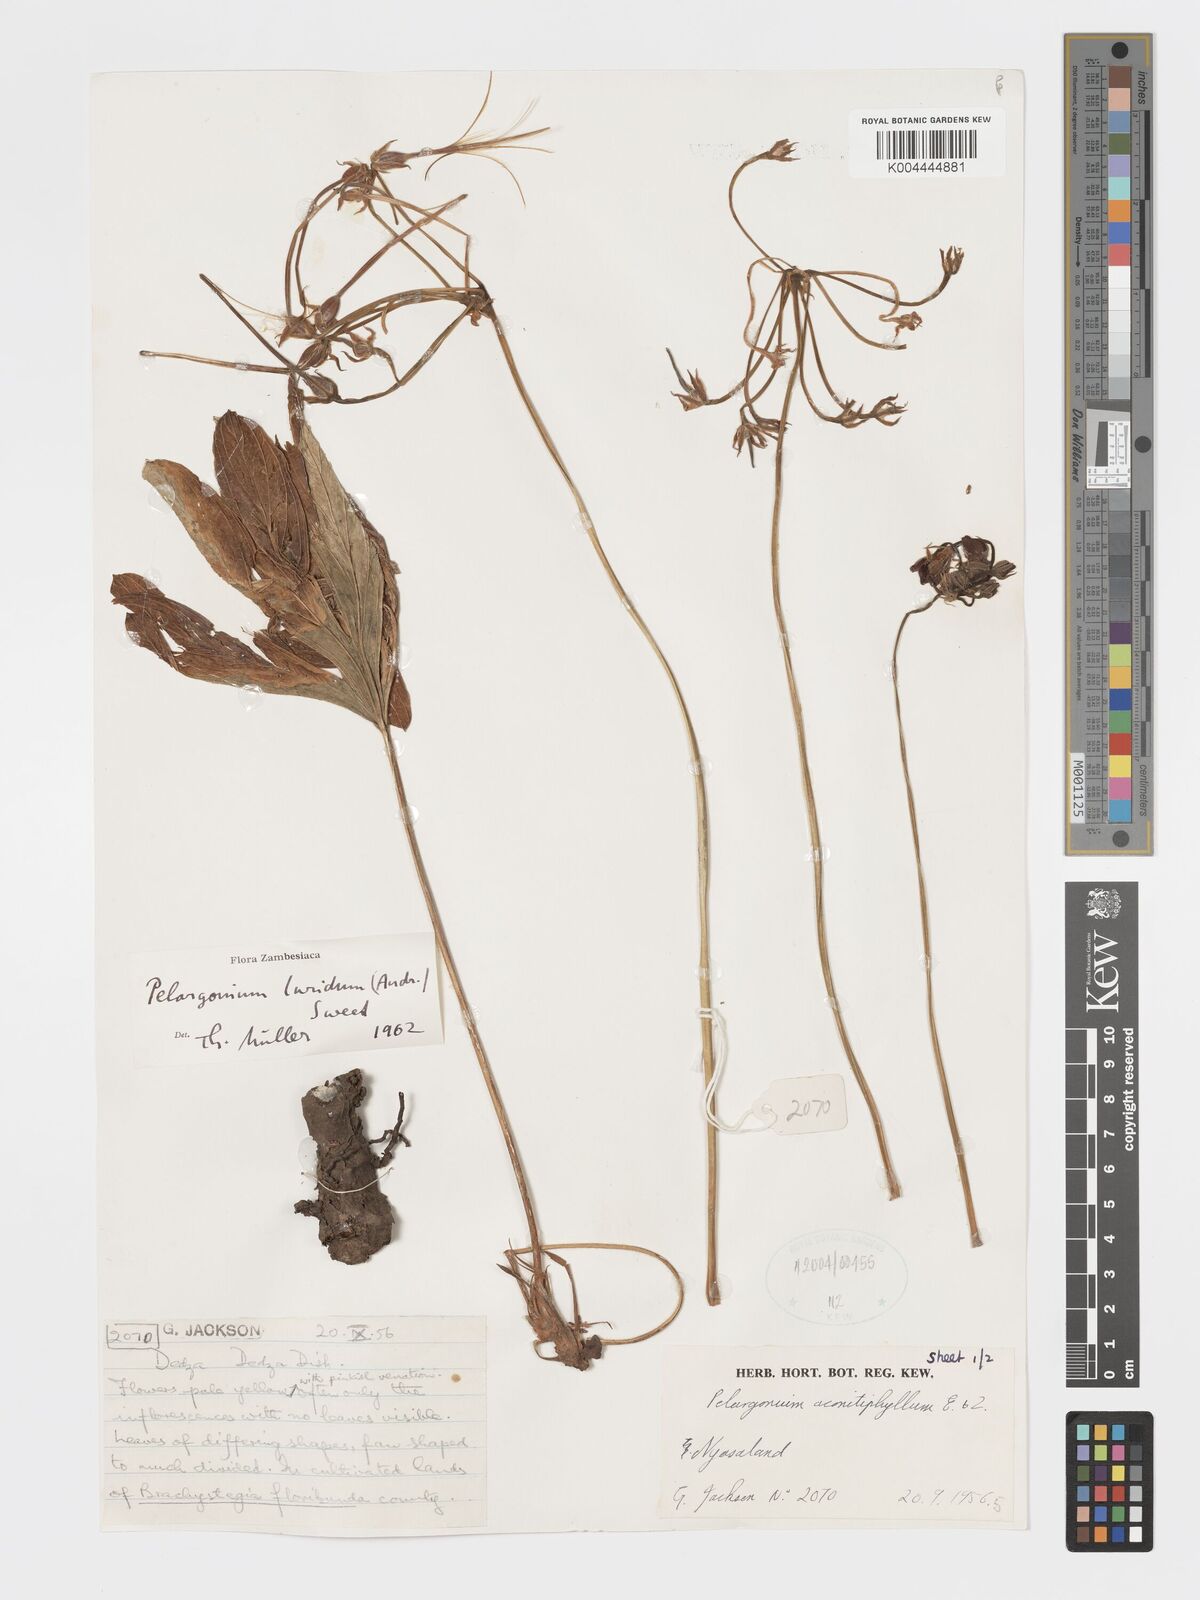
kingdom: Plantae
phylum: Tracheophyta
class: Magnoliopsida
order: Geraniales
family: Geraniaceae
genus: Pelargonium
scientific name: Pelargonium luridum
